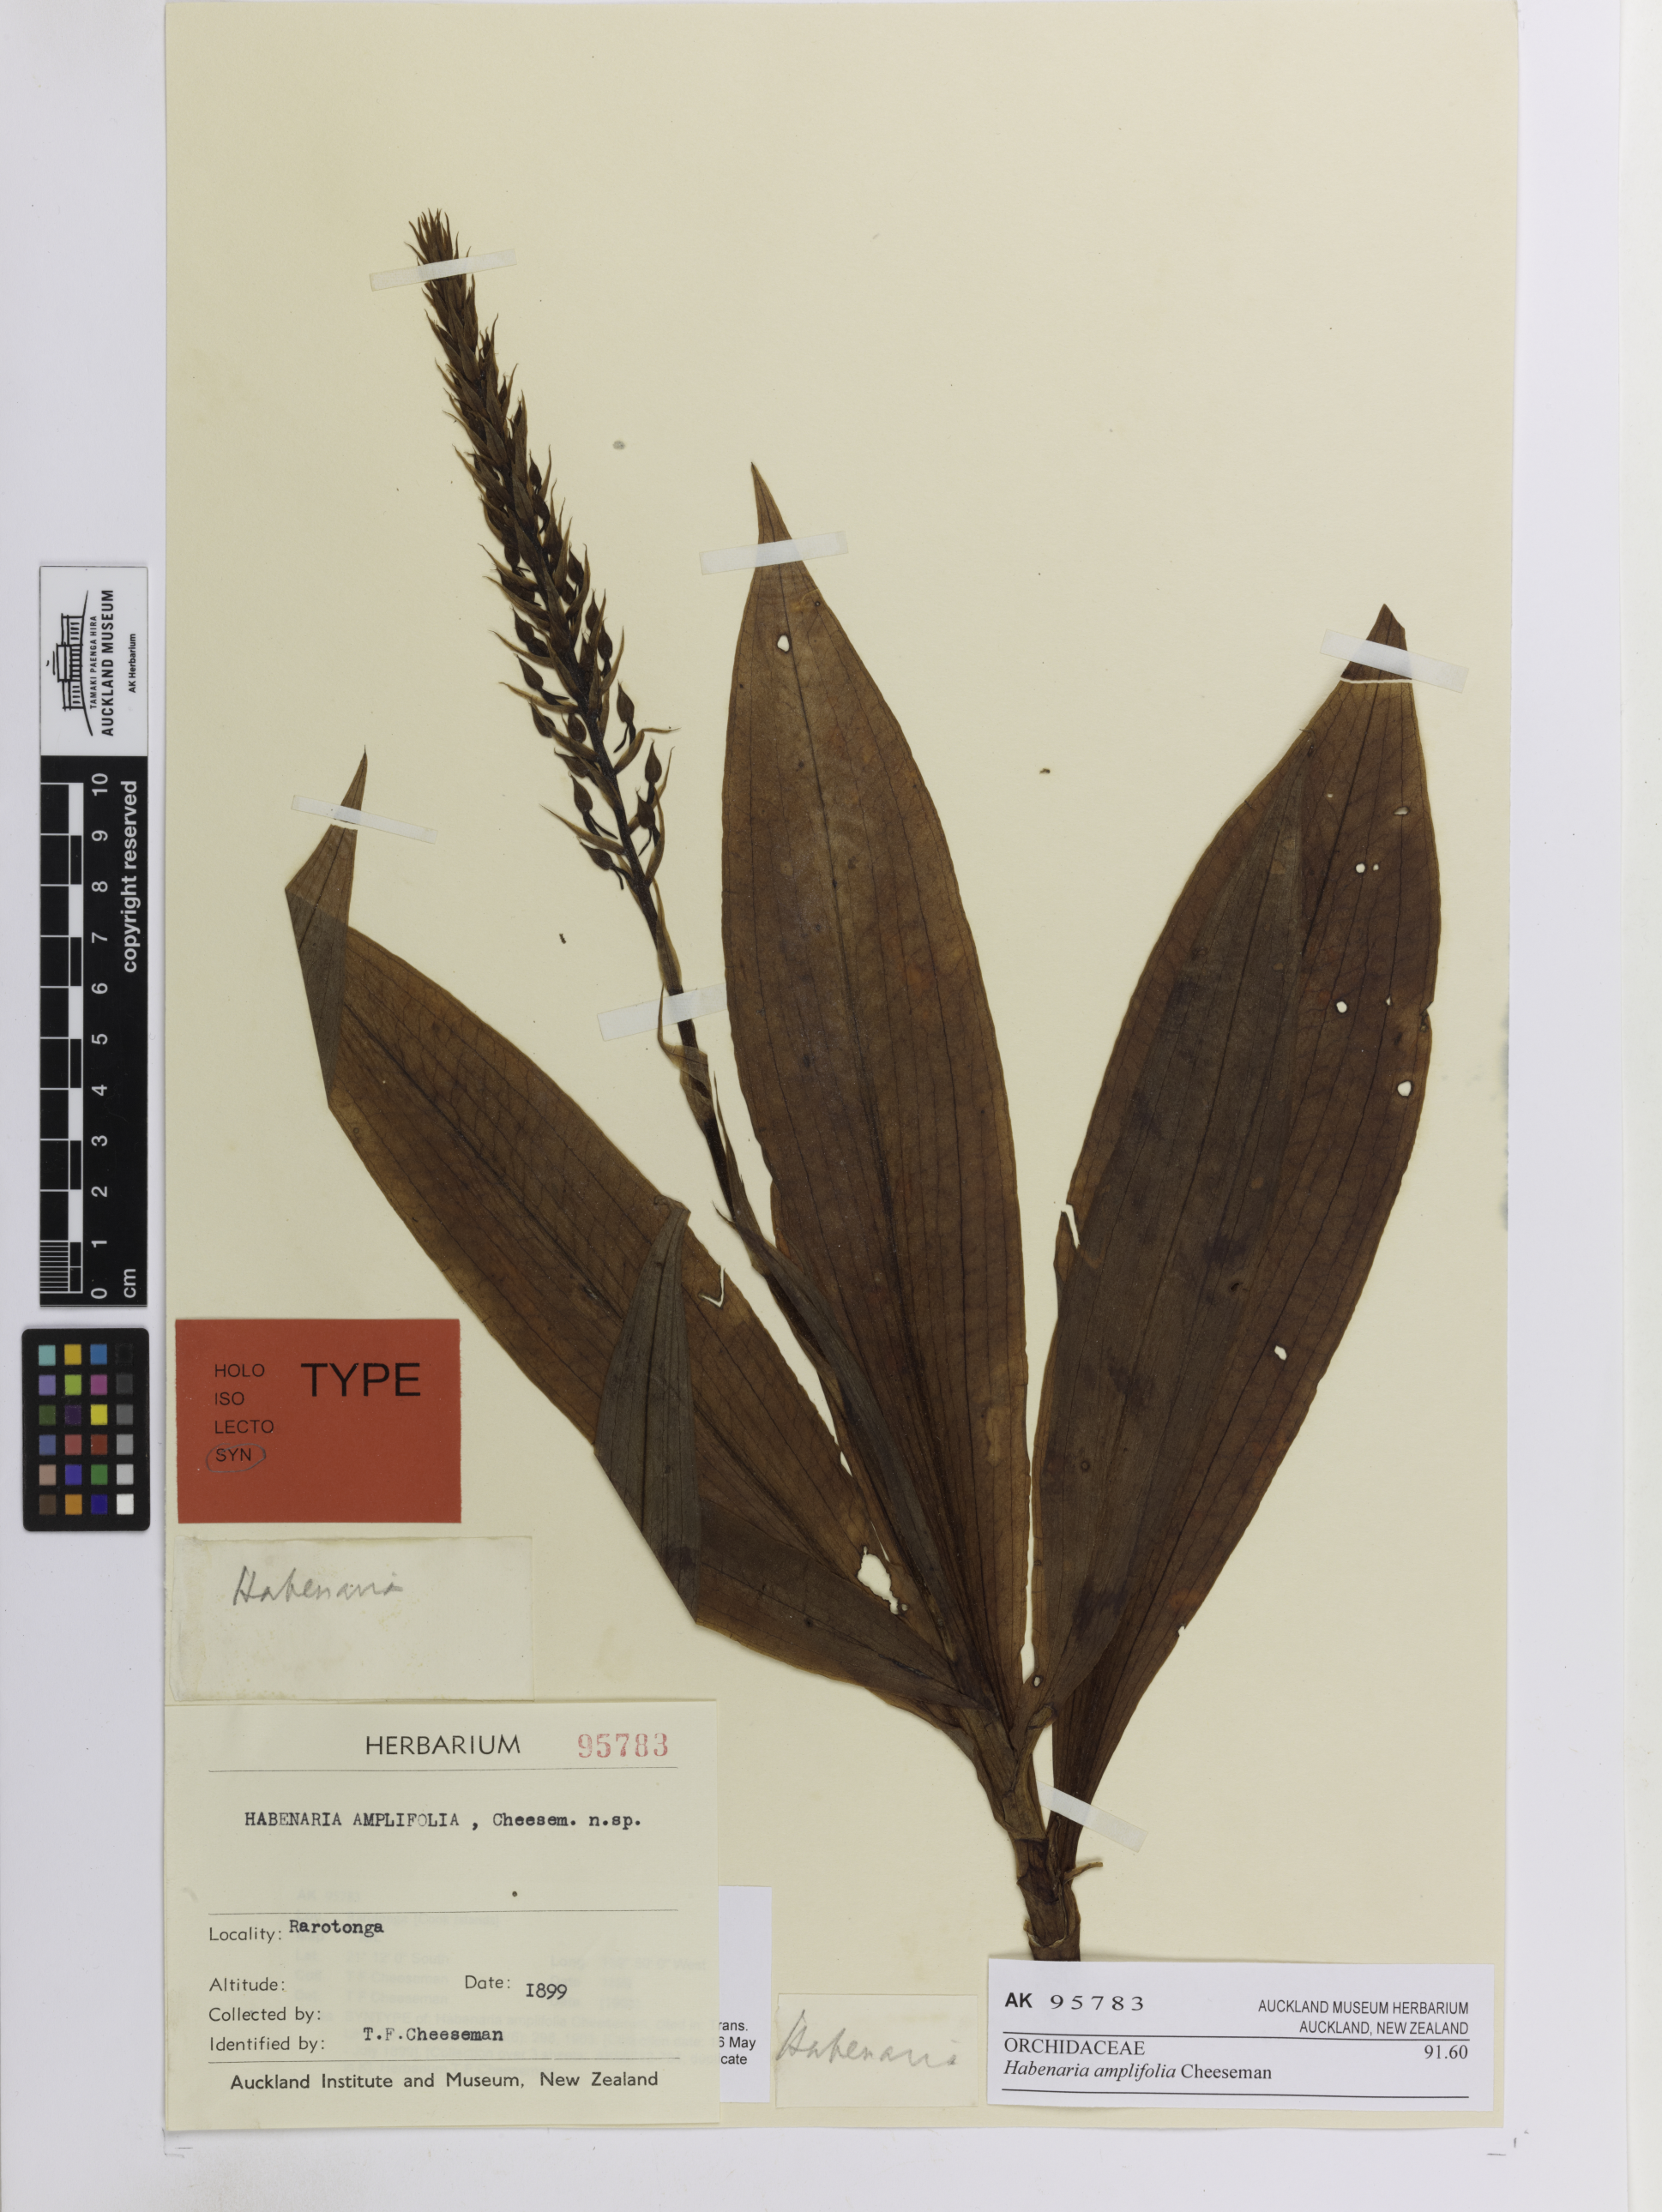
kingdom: Plantae
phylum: Tracheophyta
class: Liliopsida
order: Asparagales
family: Orchidaceae
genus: Habenaria
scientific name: Habenaria amplifolia
